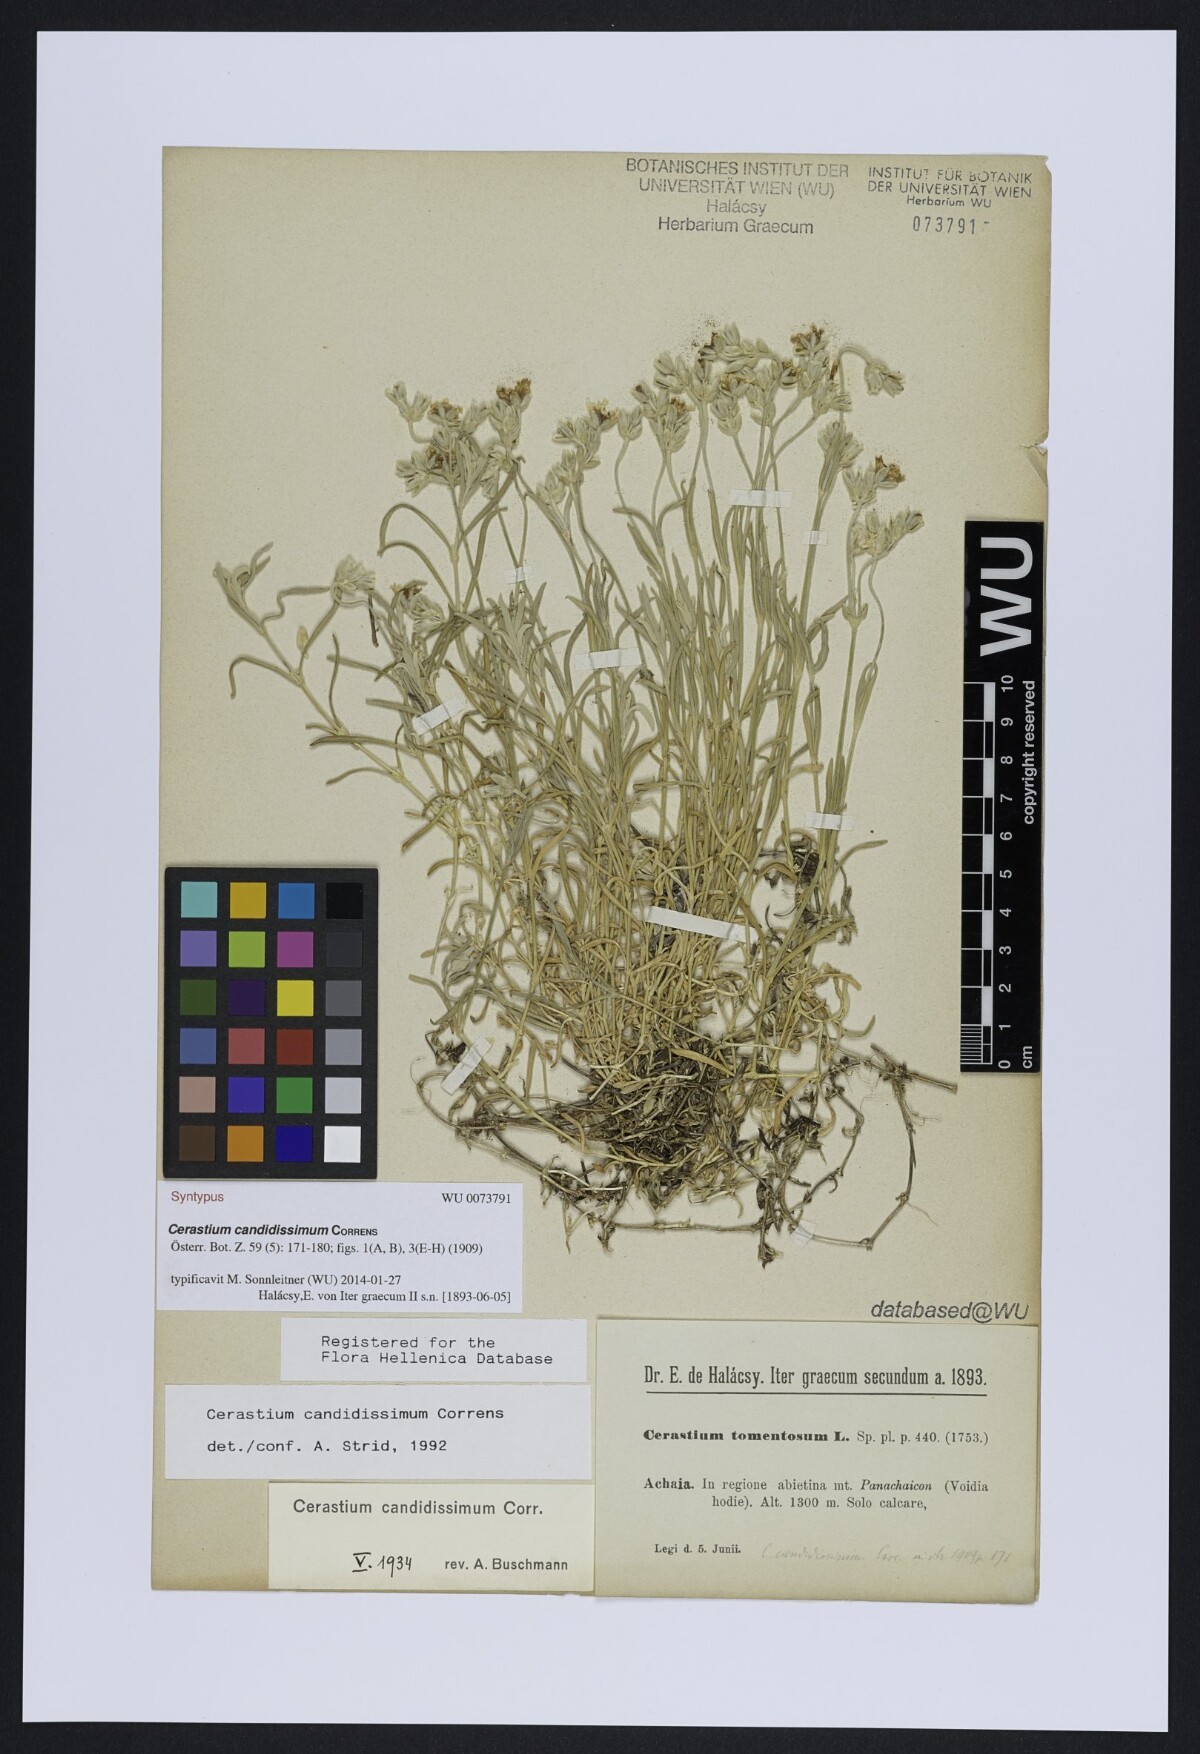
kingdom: Plantae
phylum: Tracheophyta
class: Magnoliopsida
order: Caryophyllales
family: Caryophyllaceae
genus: Cerastium
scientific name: Cerastium candidissimum
